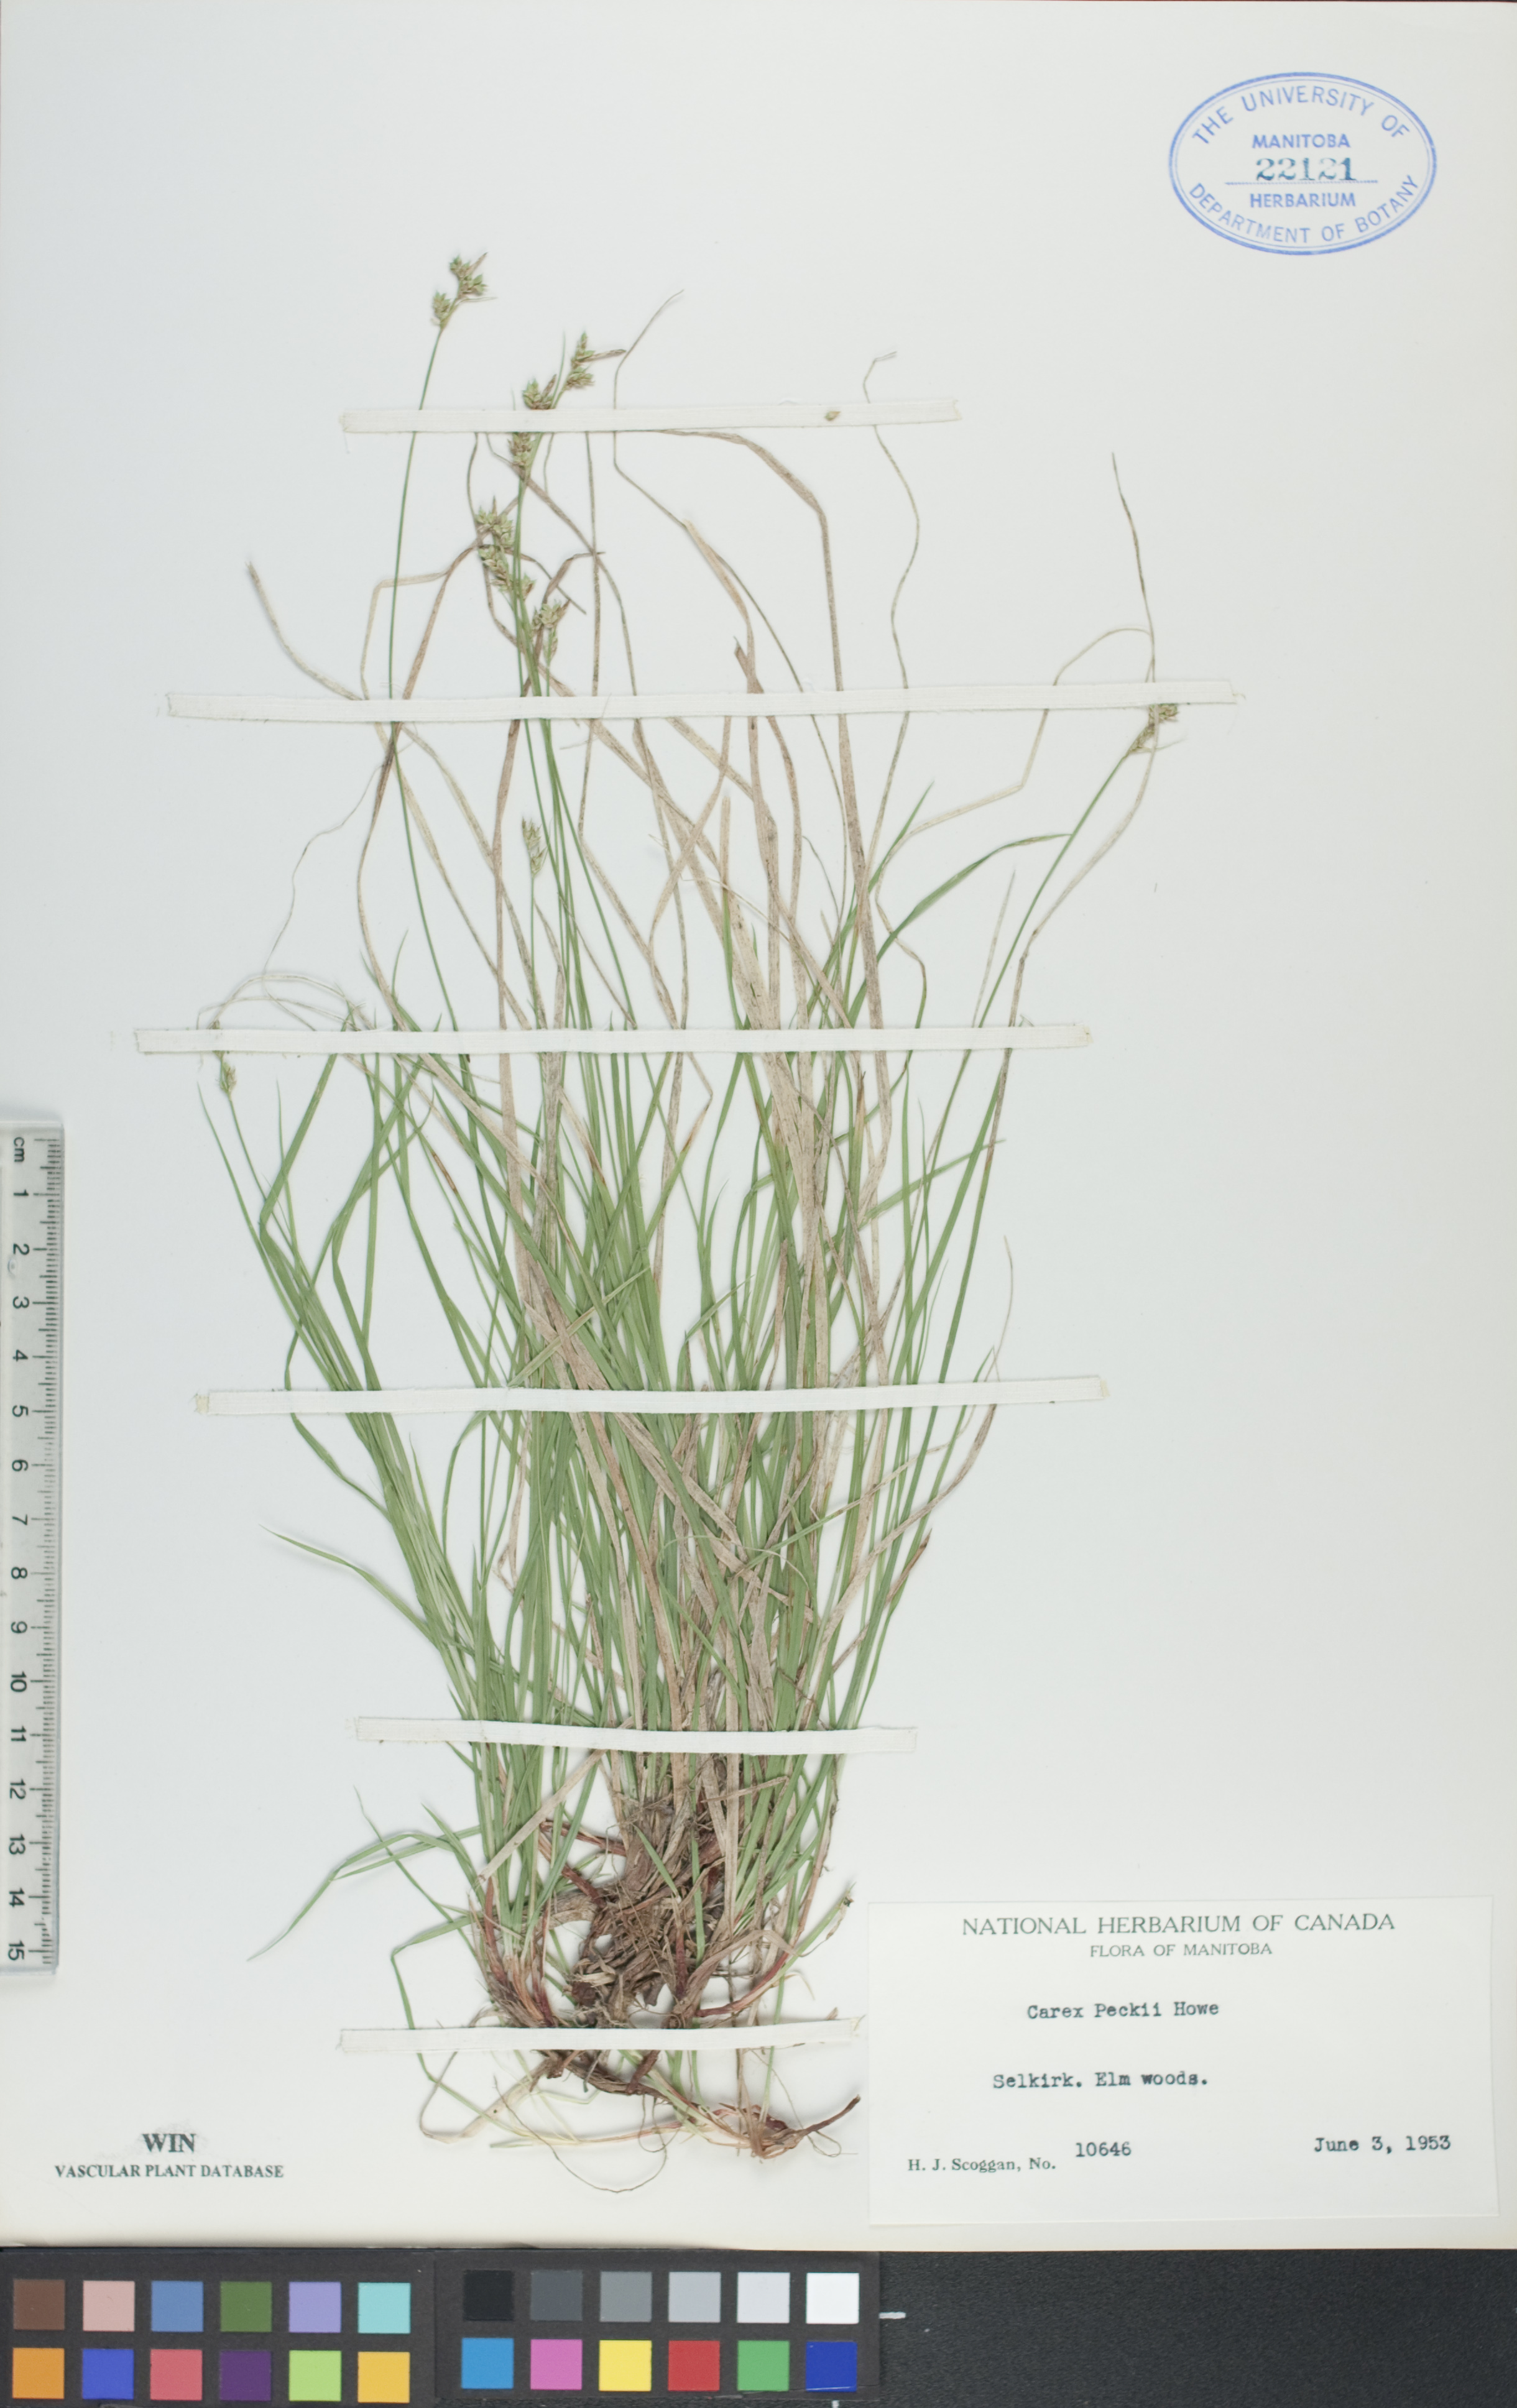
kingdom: Plantae
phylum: Tracheophyta
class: Liliopsida
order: Poales
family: Cyperaceae
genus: Carex
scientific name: Carex peckii
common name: Peck's oak sedge
